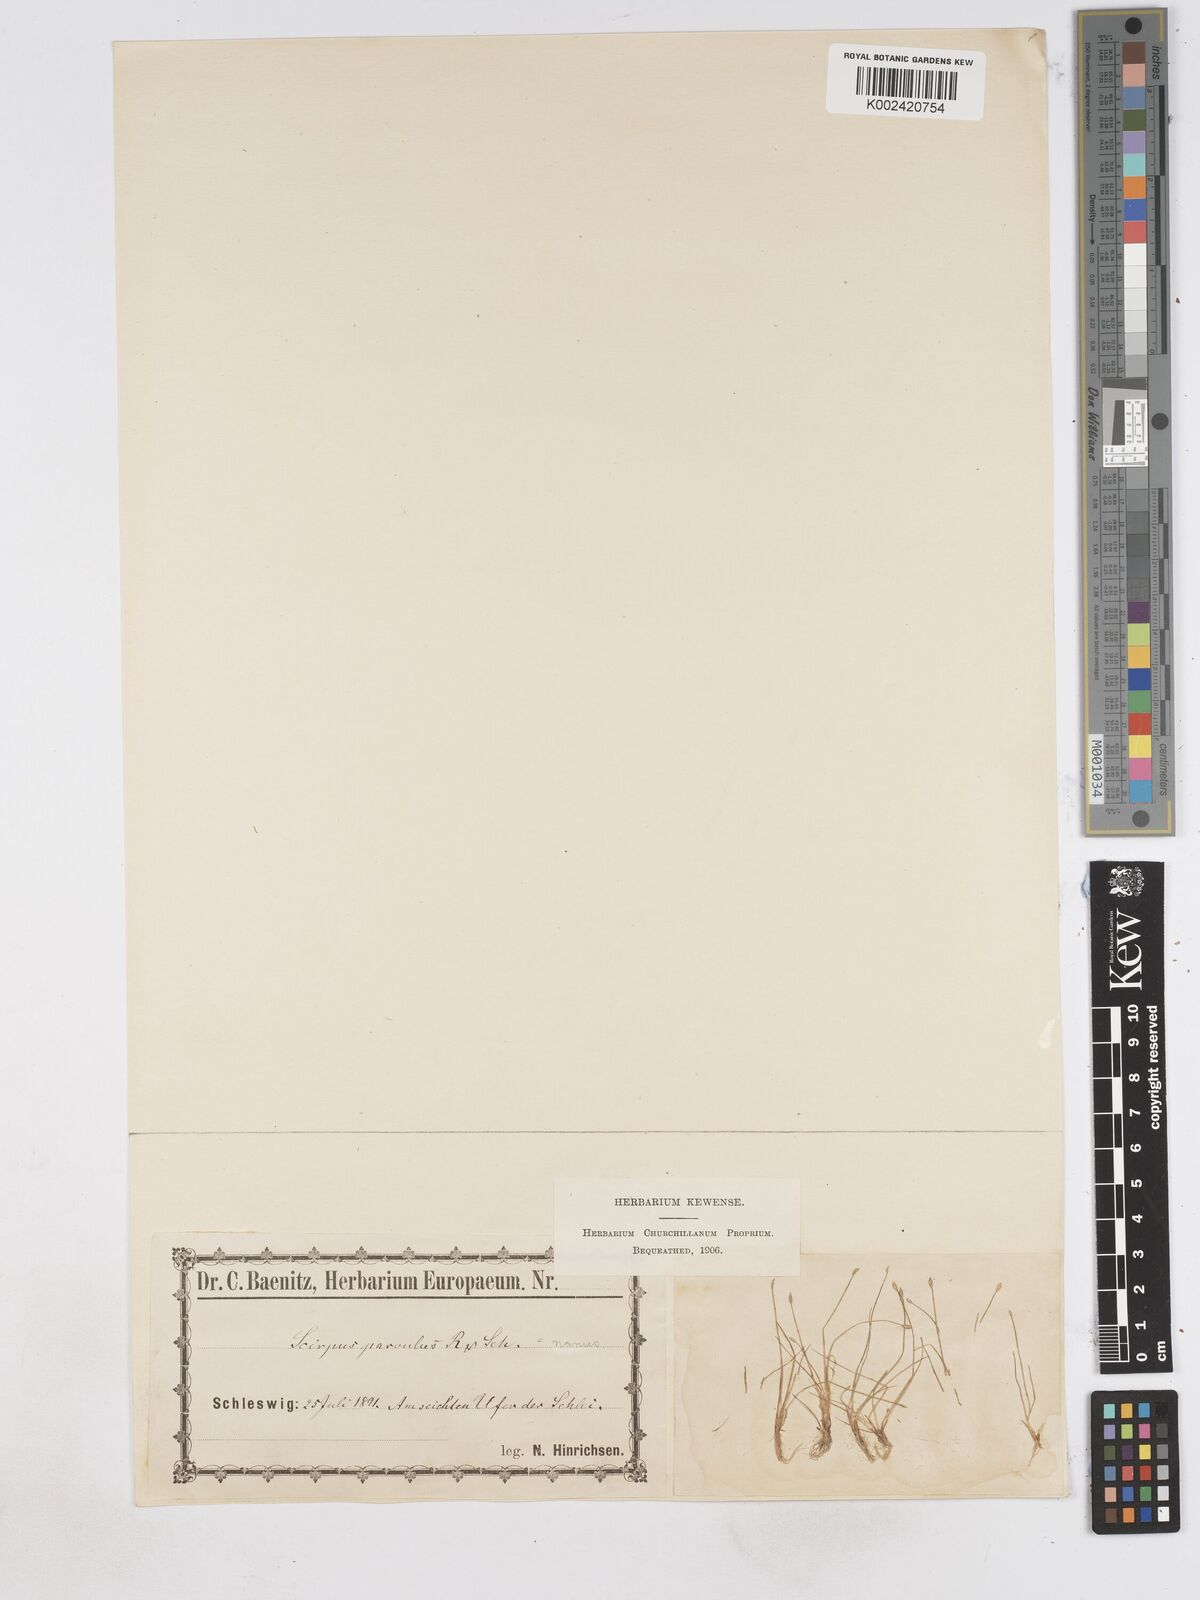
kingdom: Plantae
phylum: Tracheophyta
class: Liliopsida
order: Poales
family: Cyperaceae
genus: Eleocharis
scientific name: Eleocharis parvula
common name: Dwarf spike-rush
